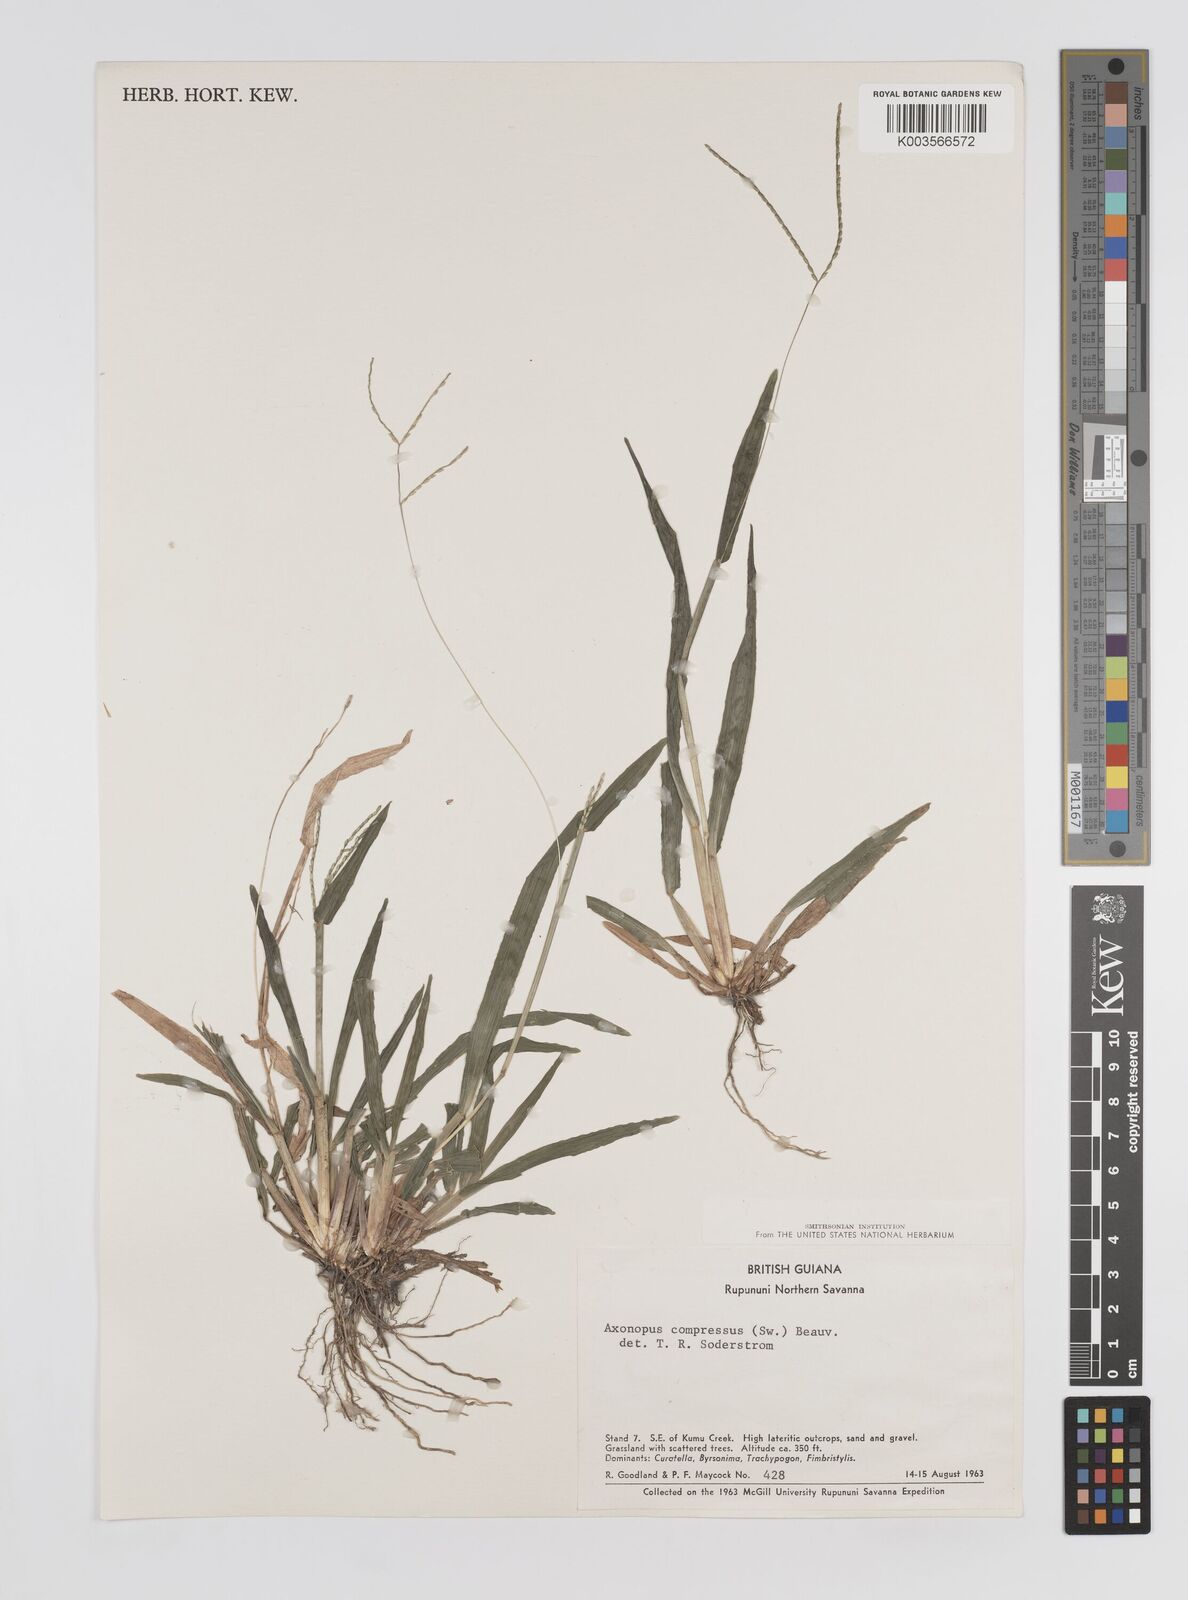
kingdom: Plantae
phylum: Tracheophyta
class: Liliopsida
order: Poales
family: Poaceae
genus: Axonopus
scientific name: Axonopus compressus
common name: American carpet grass
